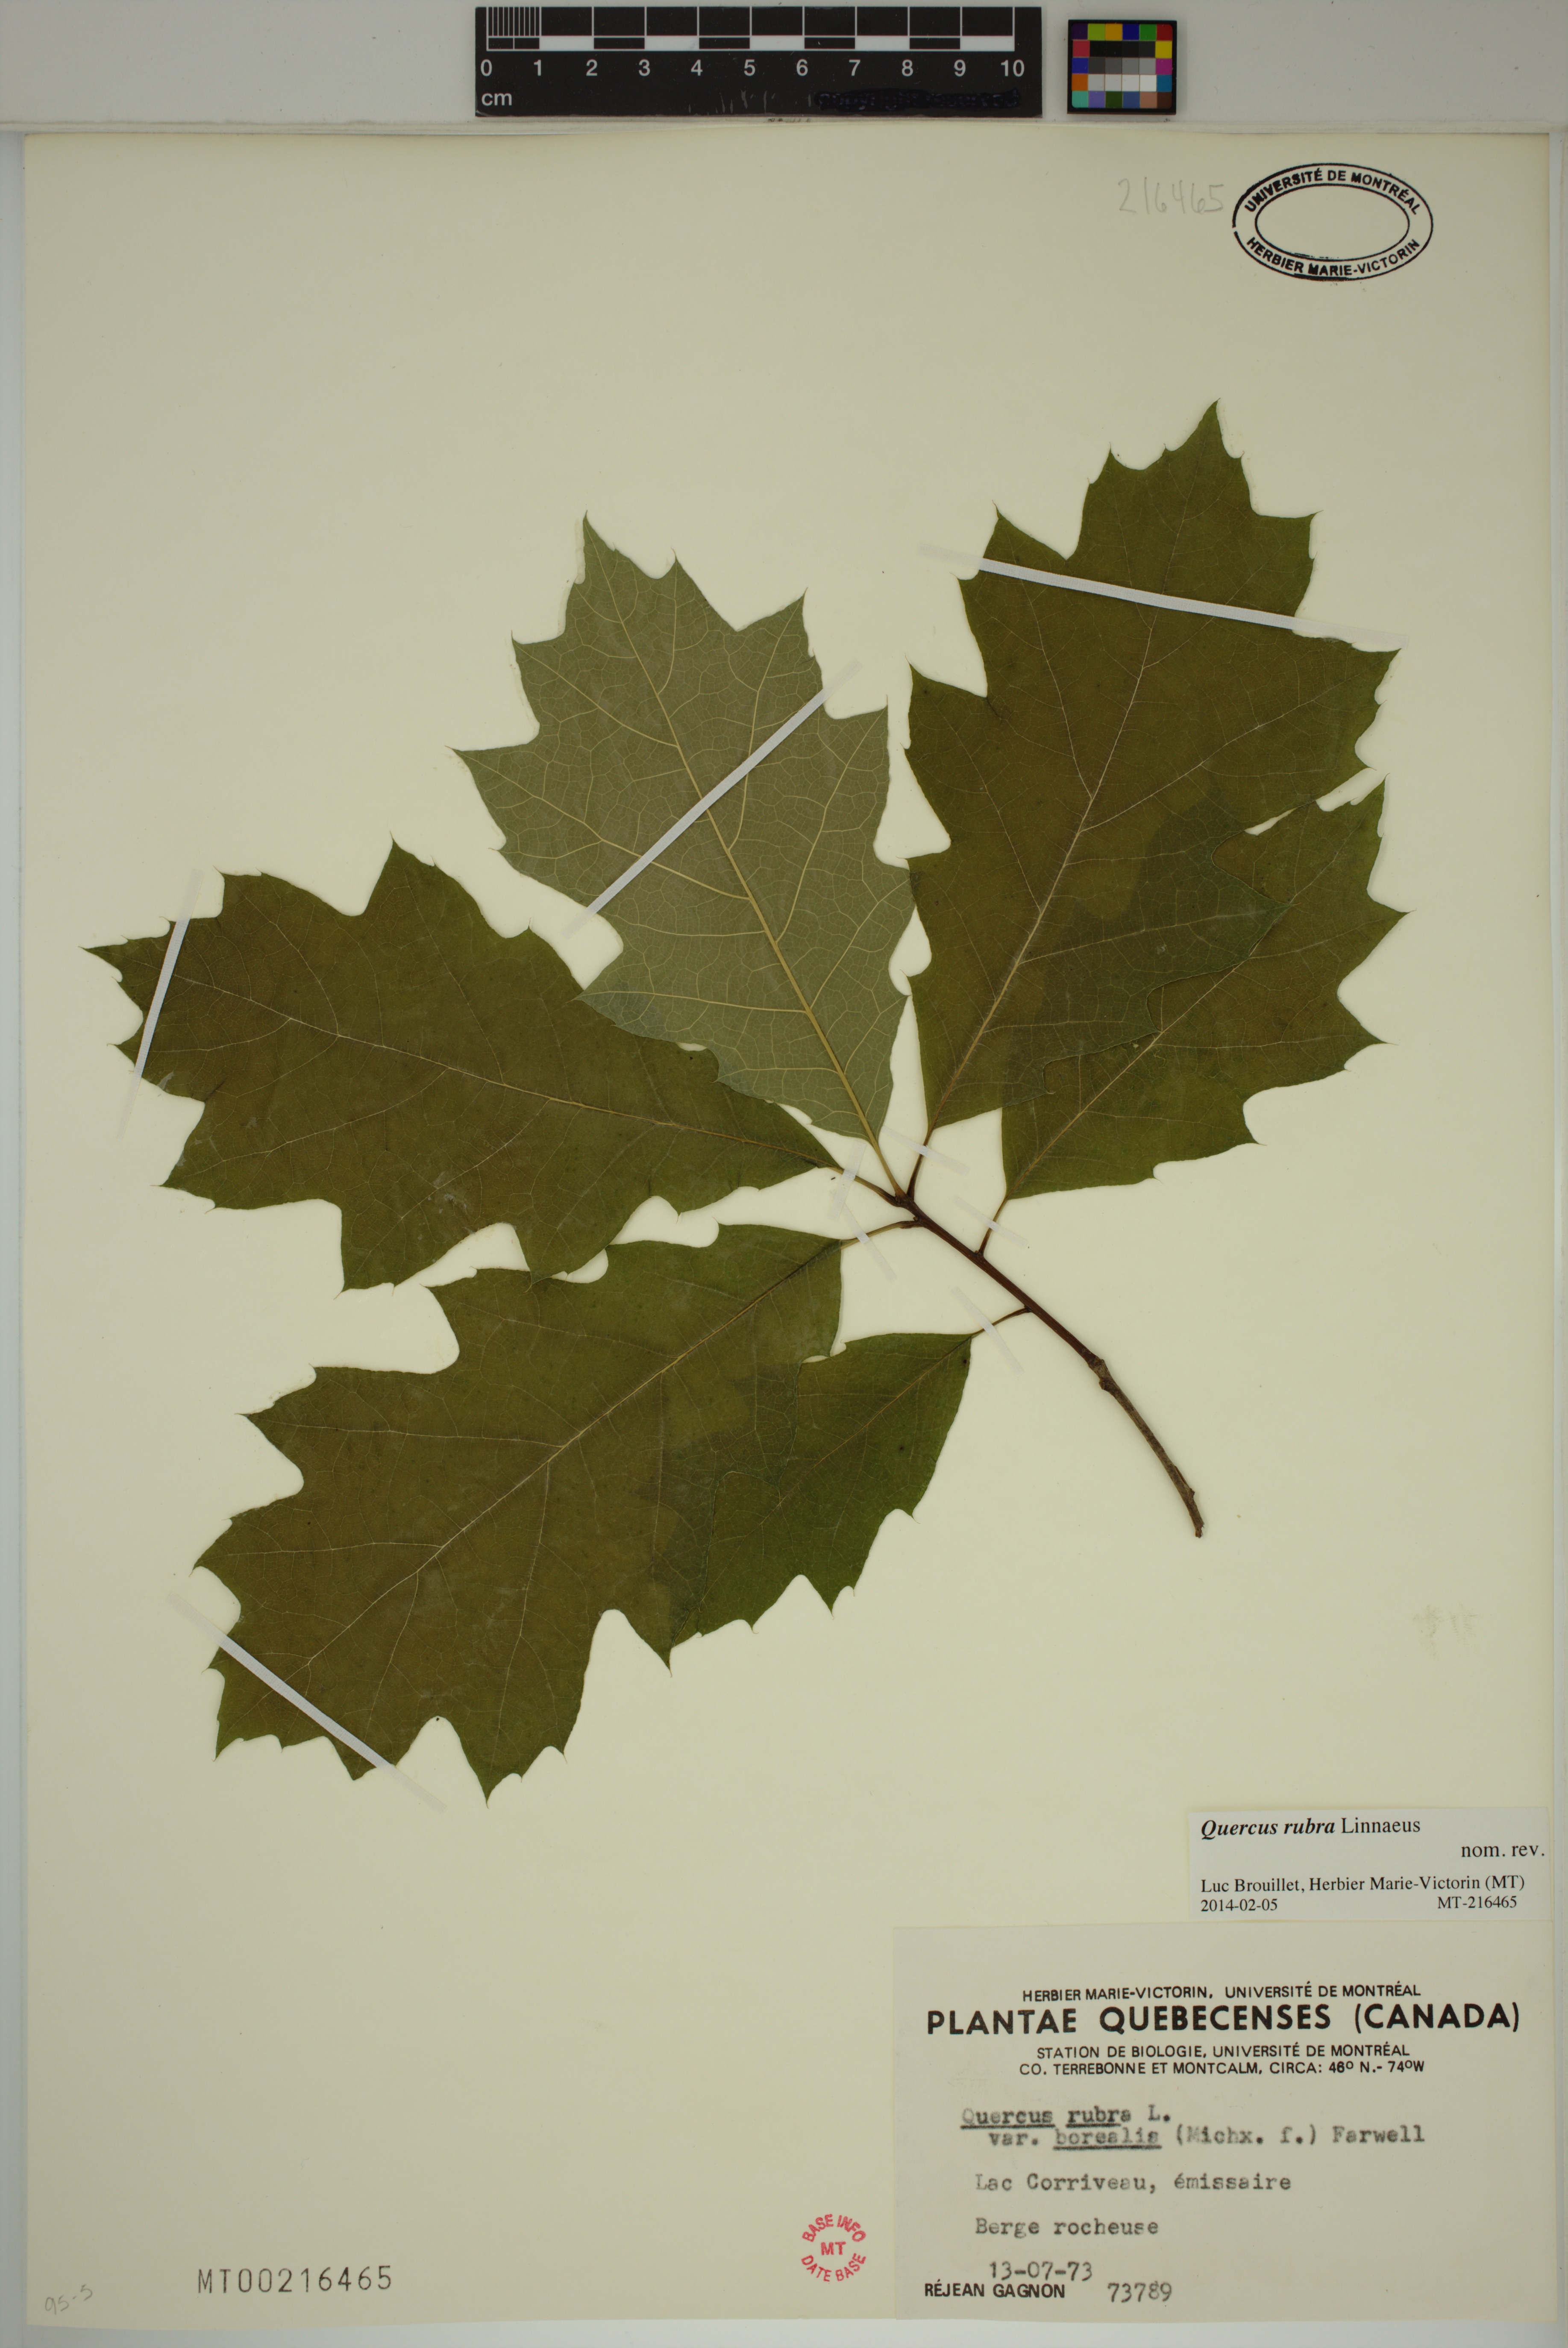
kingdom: Plantae
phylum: Tracheophyta
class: Magnoliopsida
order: Fagales
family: Fagaceae
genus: Quercus
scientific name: Quercus rubra
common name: Red oak
